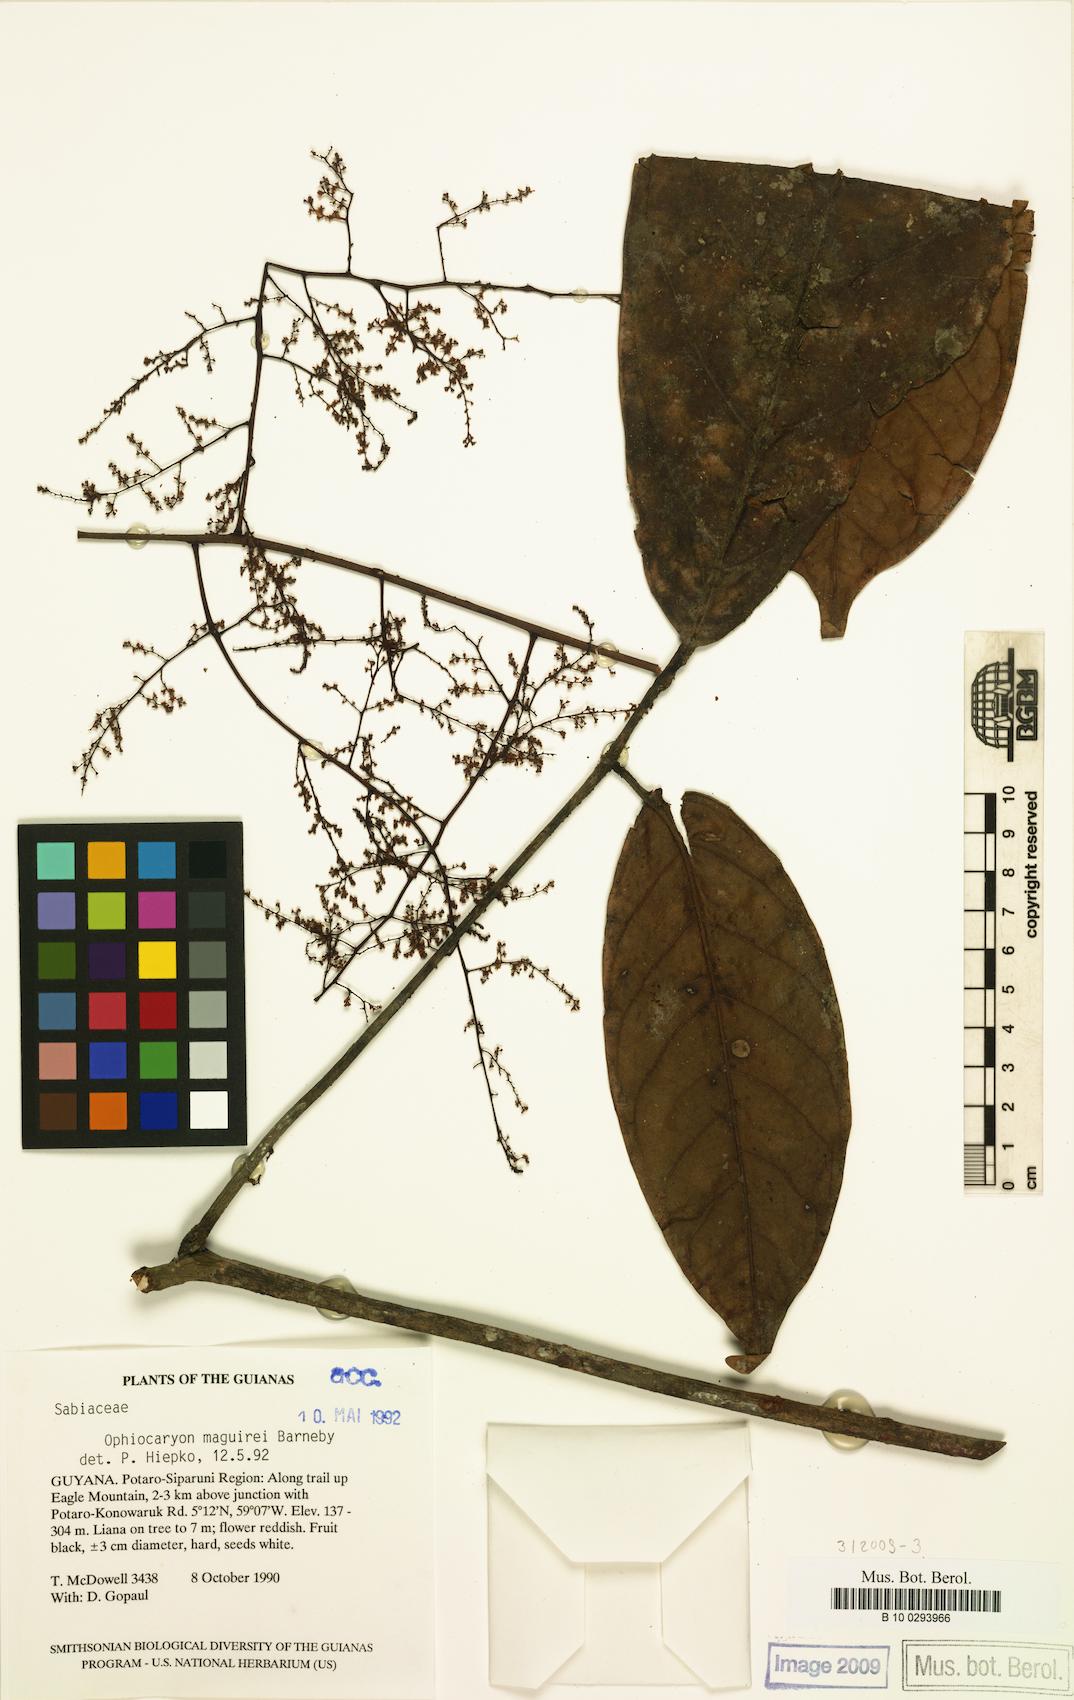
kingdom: Plantae
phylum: Tracheophyta
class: Magnoliopsida
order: Proteales
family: Sabiaceae
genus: Ophiocaryon
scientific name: Ophiocaryon maguirei
